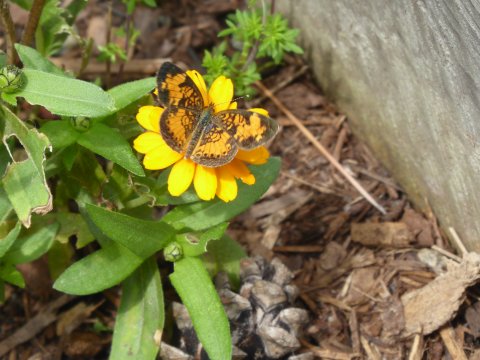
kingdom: Animalia
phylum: Arthropoda
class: Insecta
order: Lepidoptera
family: Nymphalidae
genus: Phyciodes
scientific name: Phyciodes
